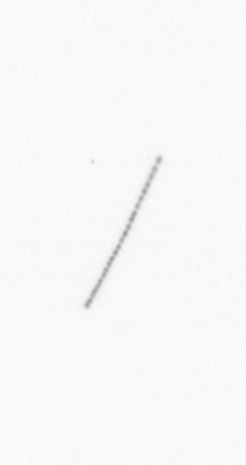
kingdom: Chromista
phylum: Ochrophyta
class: Bacillariophyceae
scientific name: Bacillariophyceae
